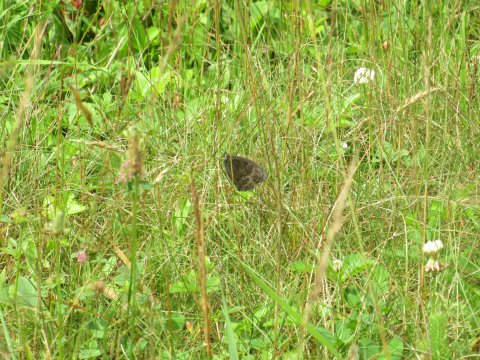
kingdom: Animalia
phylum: Arthropoda
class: Insecta
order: Lepidoptera
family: Nymphalidae
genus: Cercyonis
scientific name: Cercyonis pegala
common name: Common Wood-Nymph
